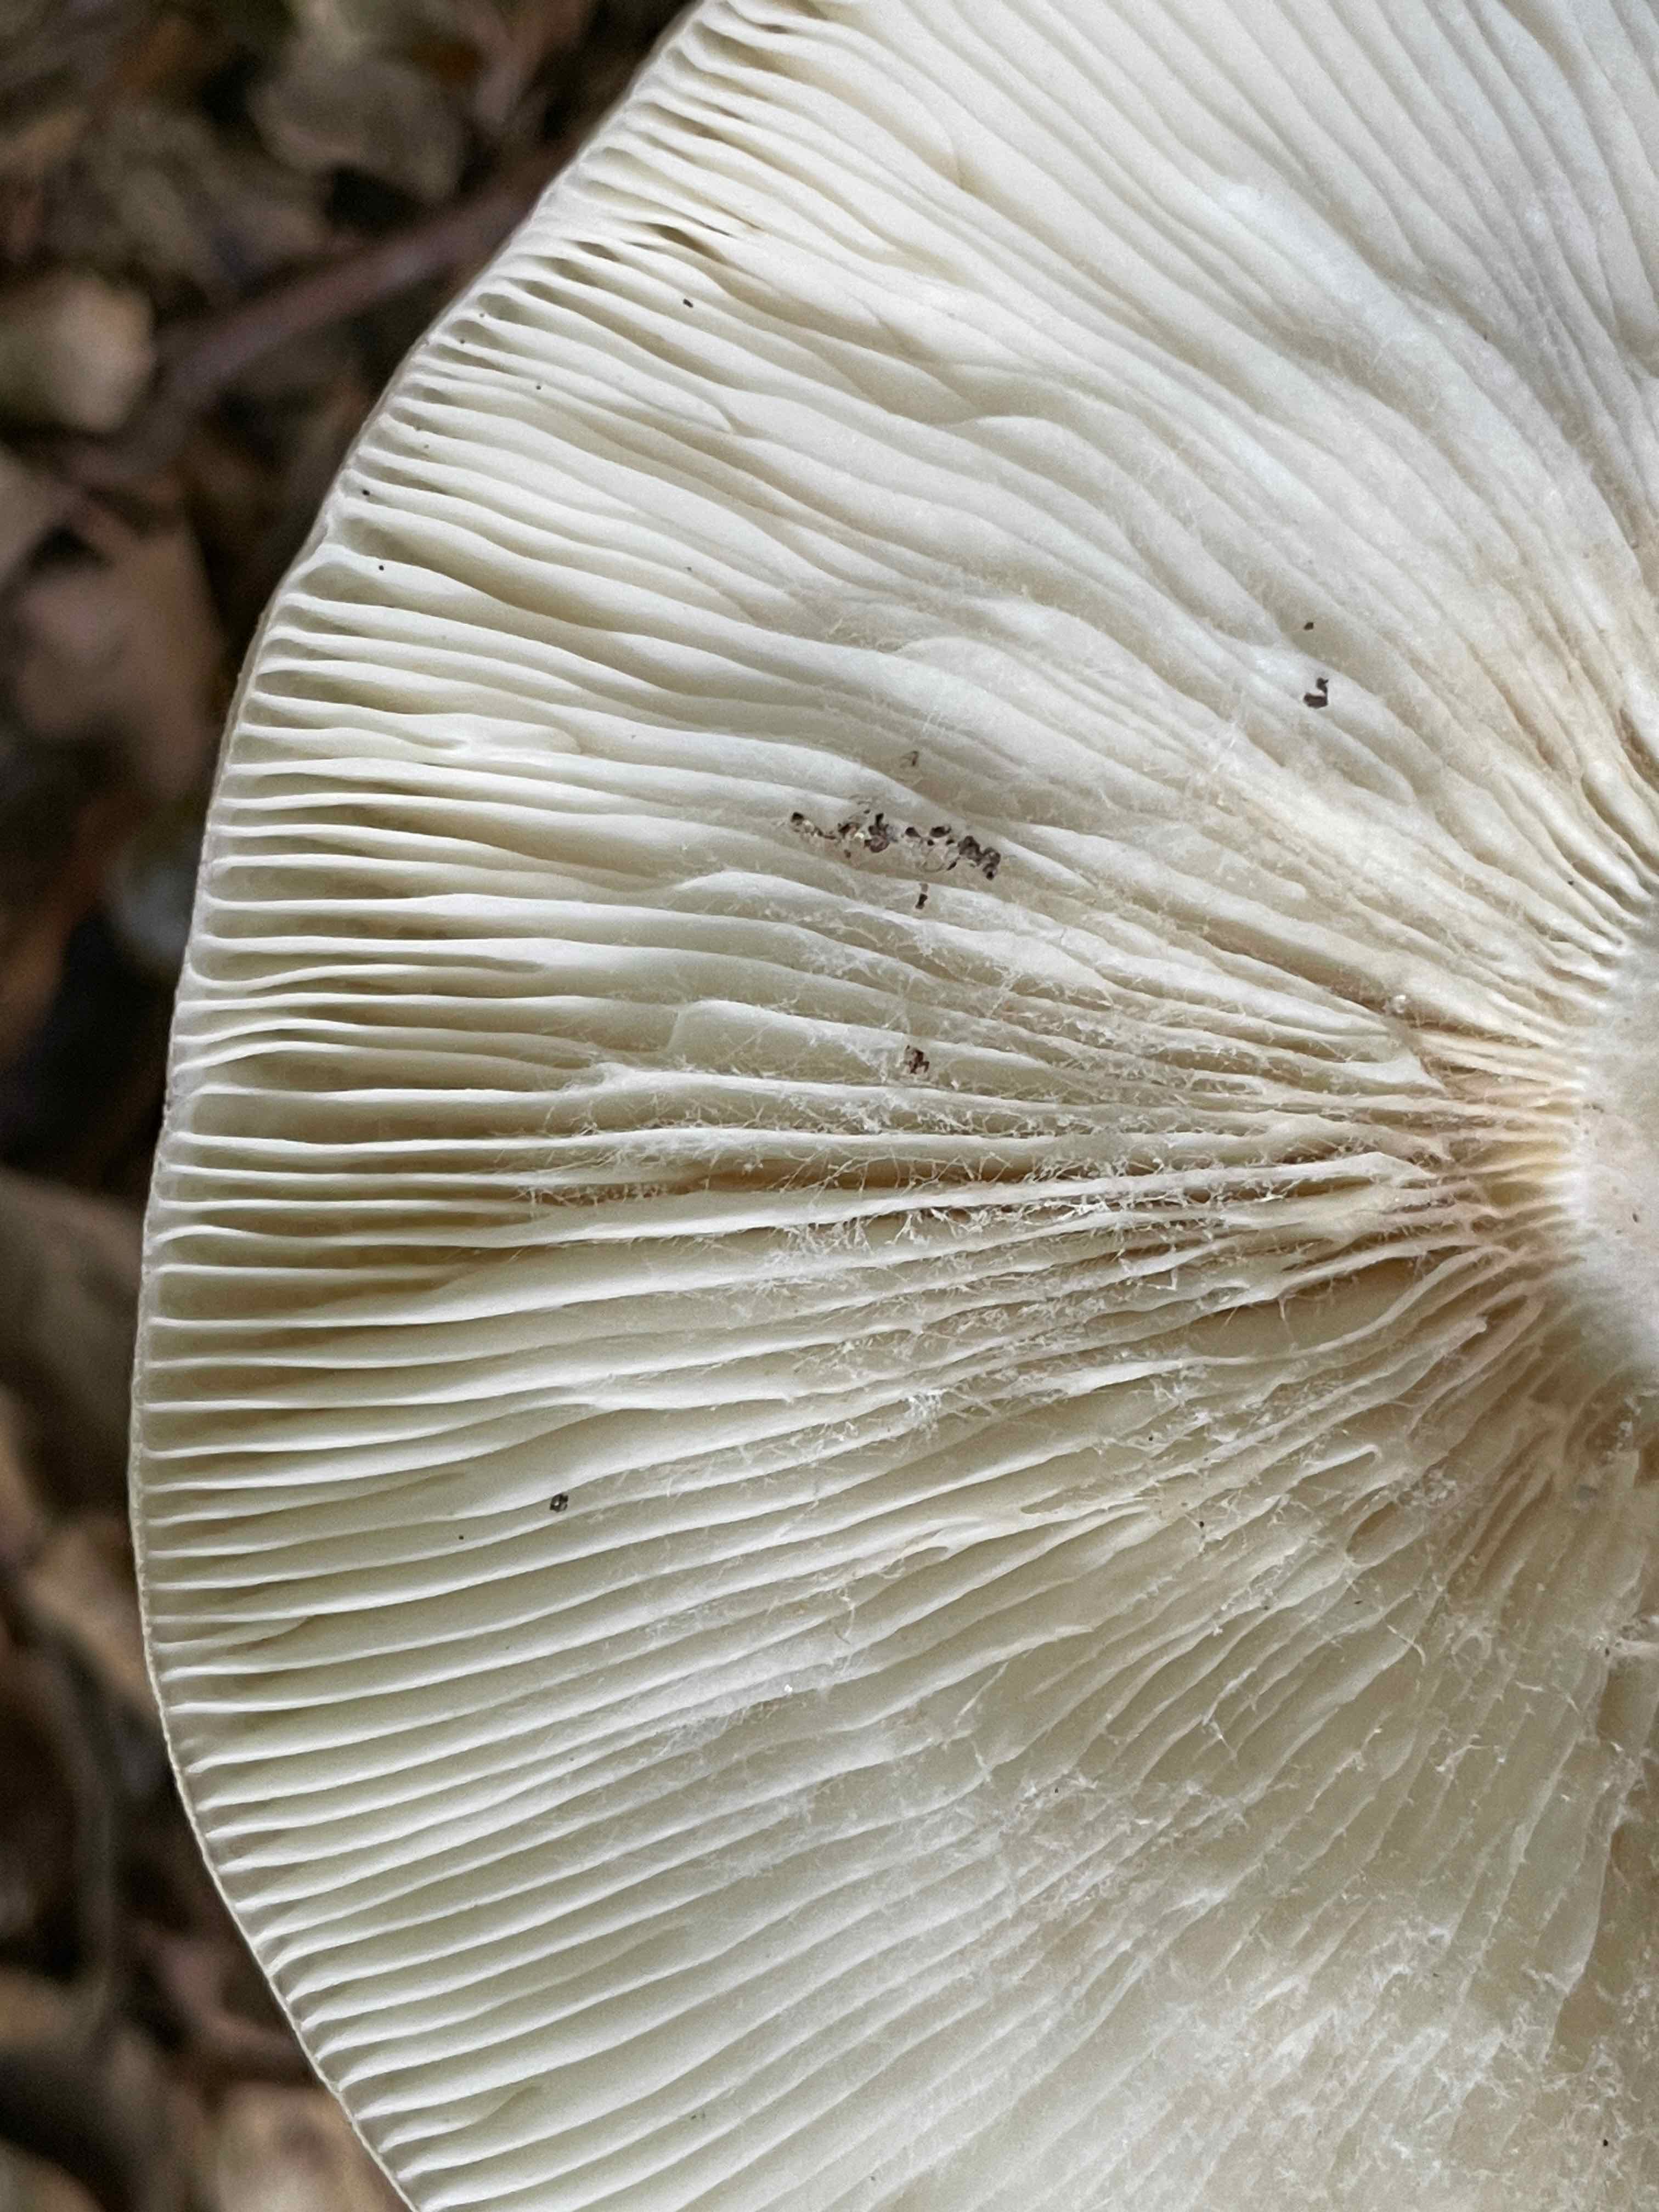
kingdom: Fungi
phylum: Basidiomycota
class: Agaricomycetes
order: Russulales
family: Russulaceae
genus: Russula
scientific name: Russula heterophylla
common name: gaffelbladet skørhat
